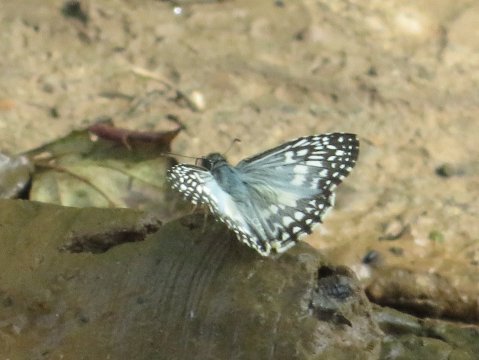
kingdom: Animalia
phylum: Arthropoda
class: Insecta
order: Lepidoptera
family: Hesperiidae
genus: Pyrgus
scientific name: Pyrgus oileus
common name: Tropical Checkered-Skipper
